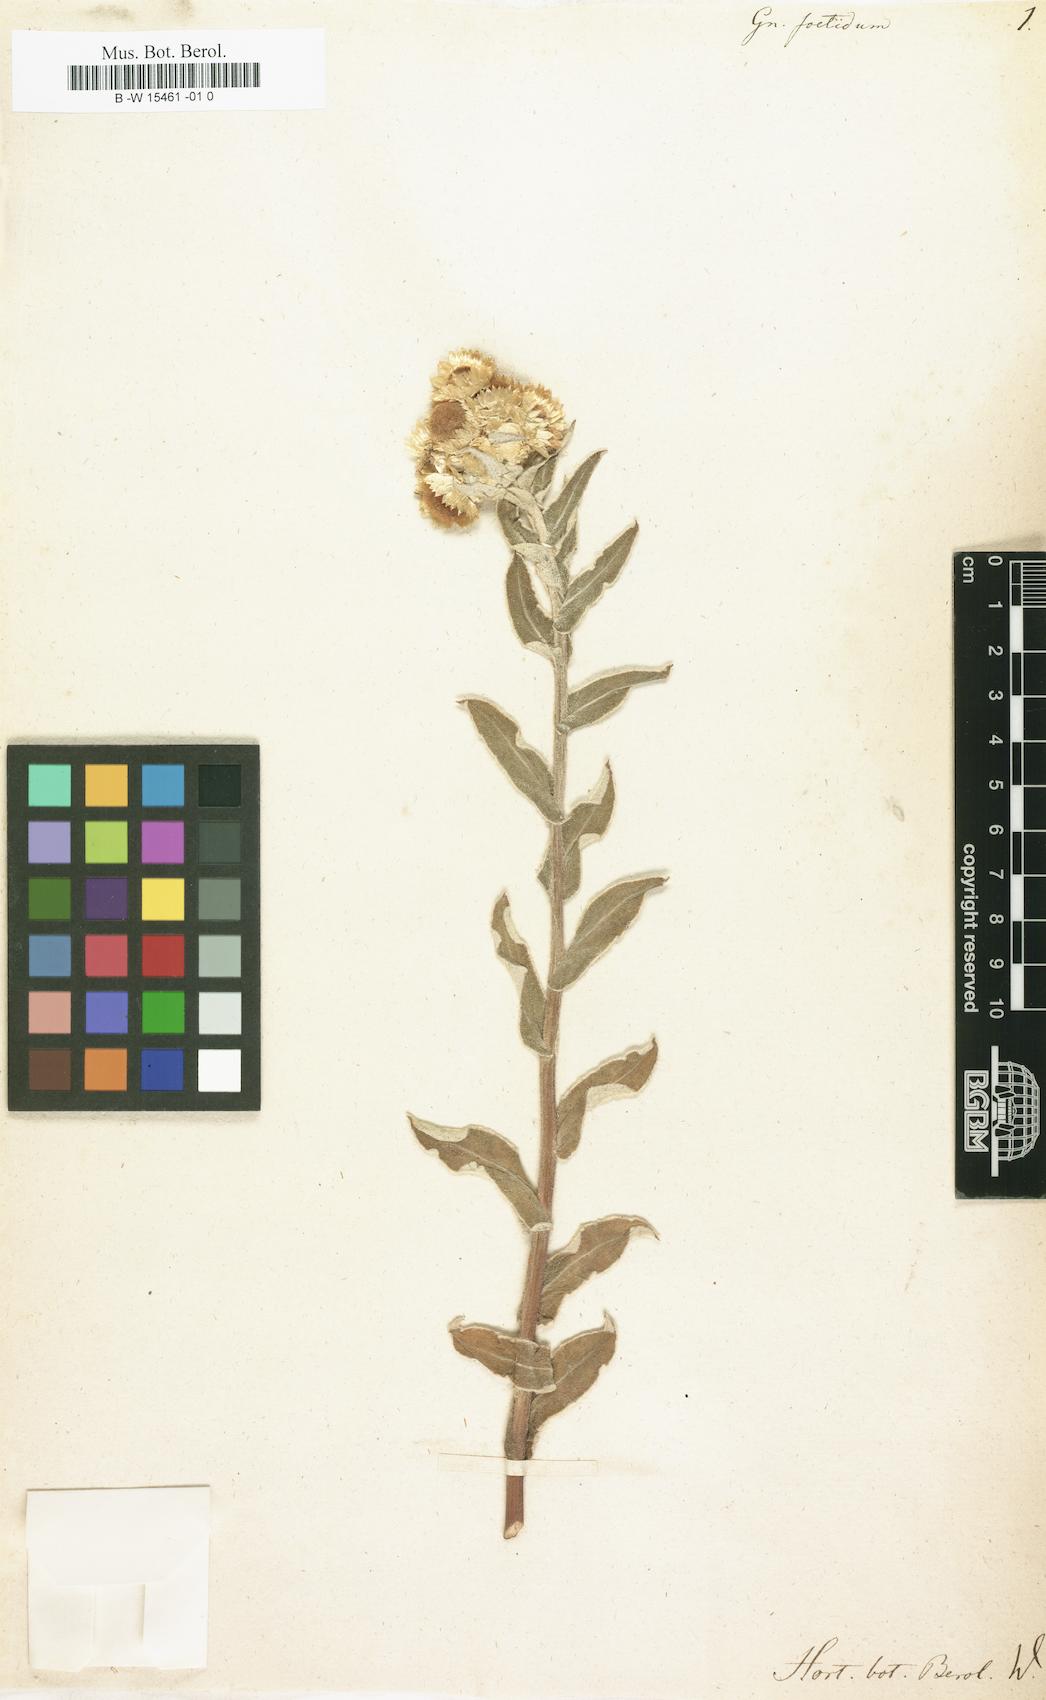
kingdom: Plantae
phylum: Tracheophyta
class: Magnoliopsida
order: Asterales
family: Asteraceae
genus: Helichrysum
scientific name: Helichrysum foetidum
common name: Stinking everlasting
